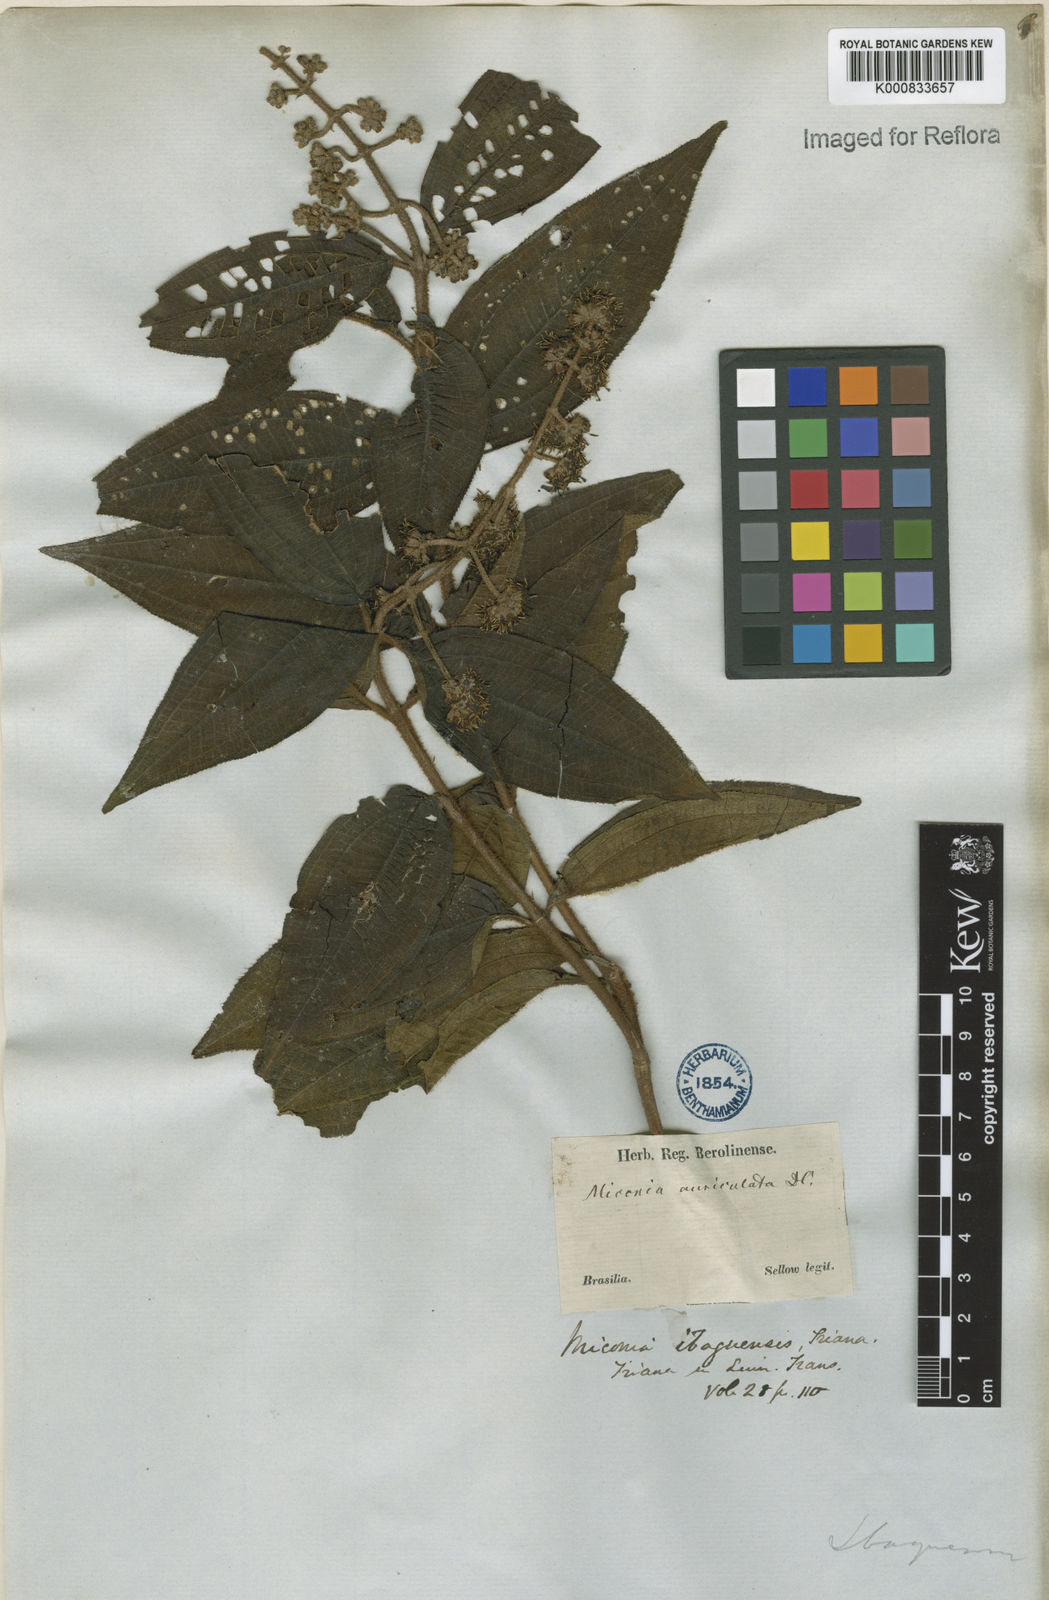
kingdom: Plantae
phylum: Tracheophyta
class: Magnoliopsida
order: Myrtales
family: Melastomataceae
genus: Miconia
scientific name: Miconia ibaguensis
